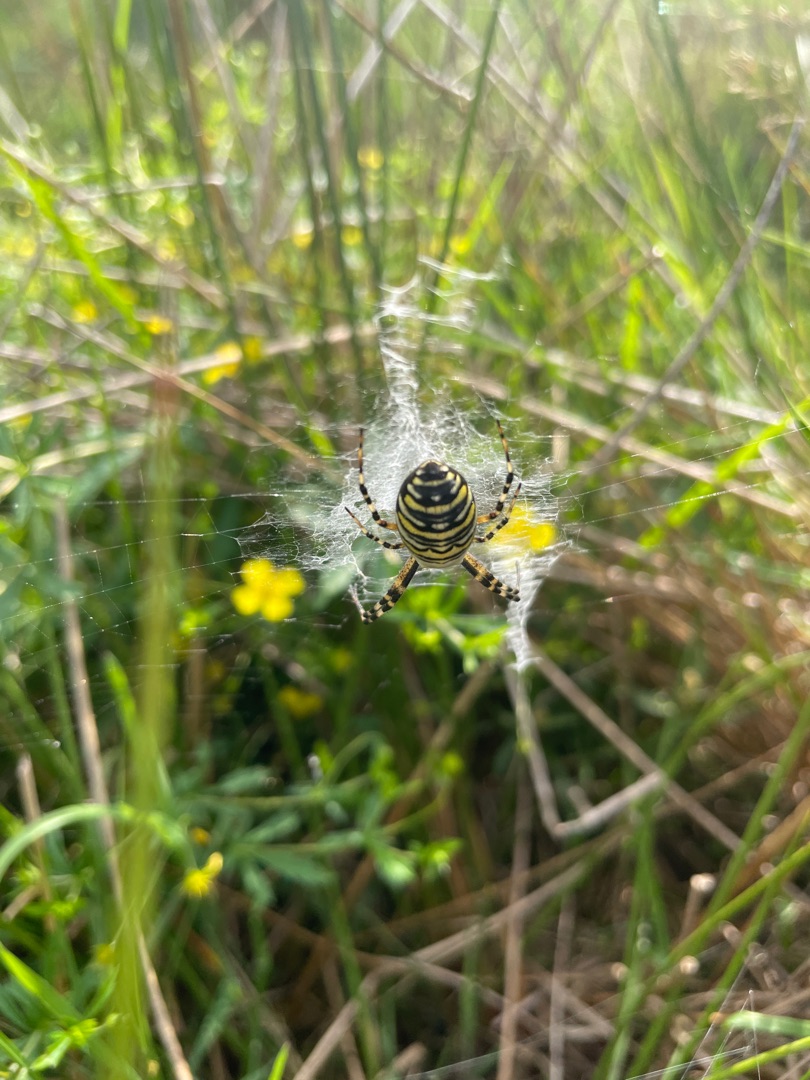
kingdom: Animalia
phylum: Arthropoda
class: Arachnida
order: Araneae
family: Araneidae
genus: Argiope
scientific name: Argiope bruennichi
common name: Hvepseedderkop
